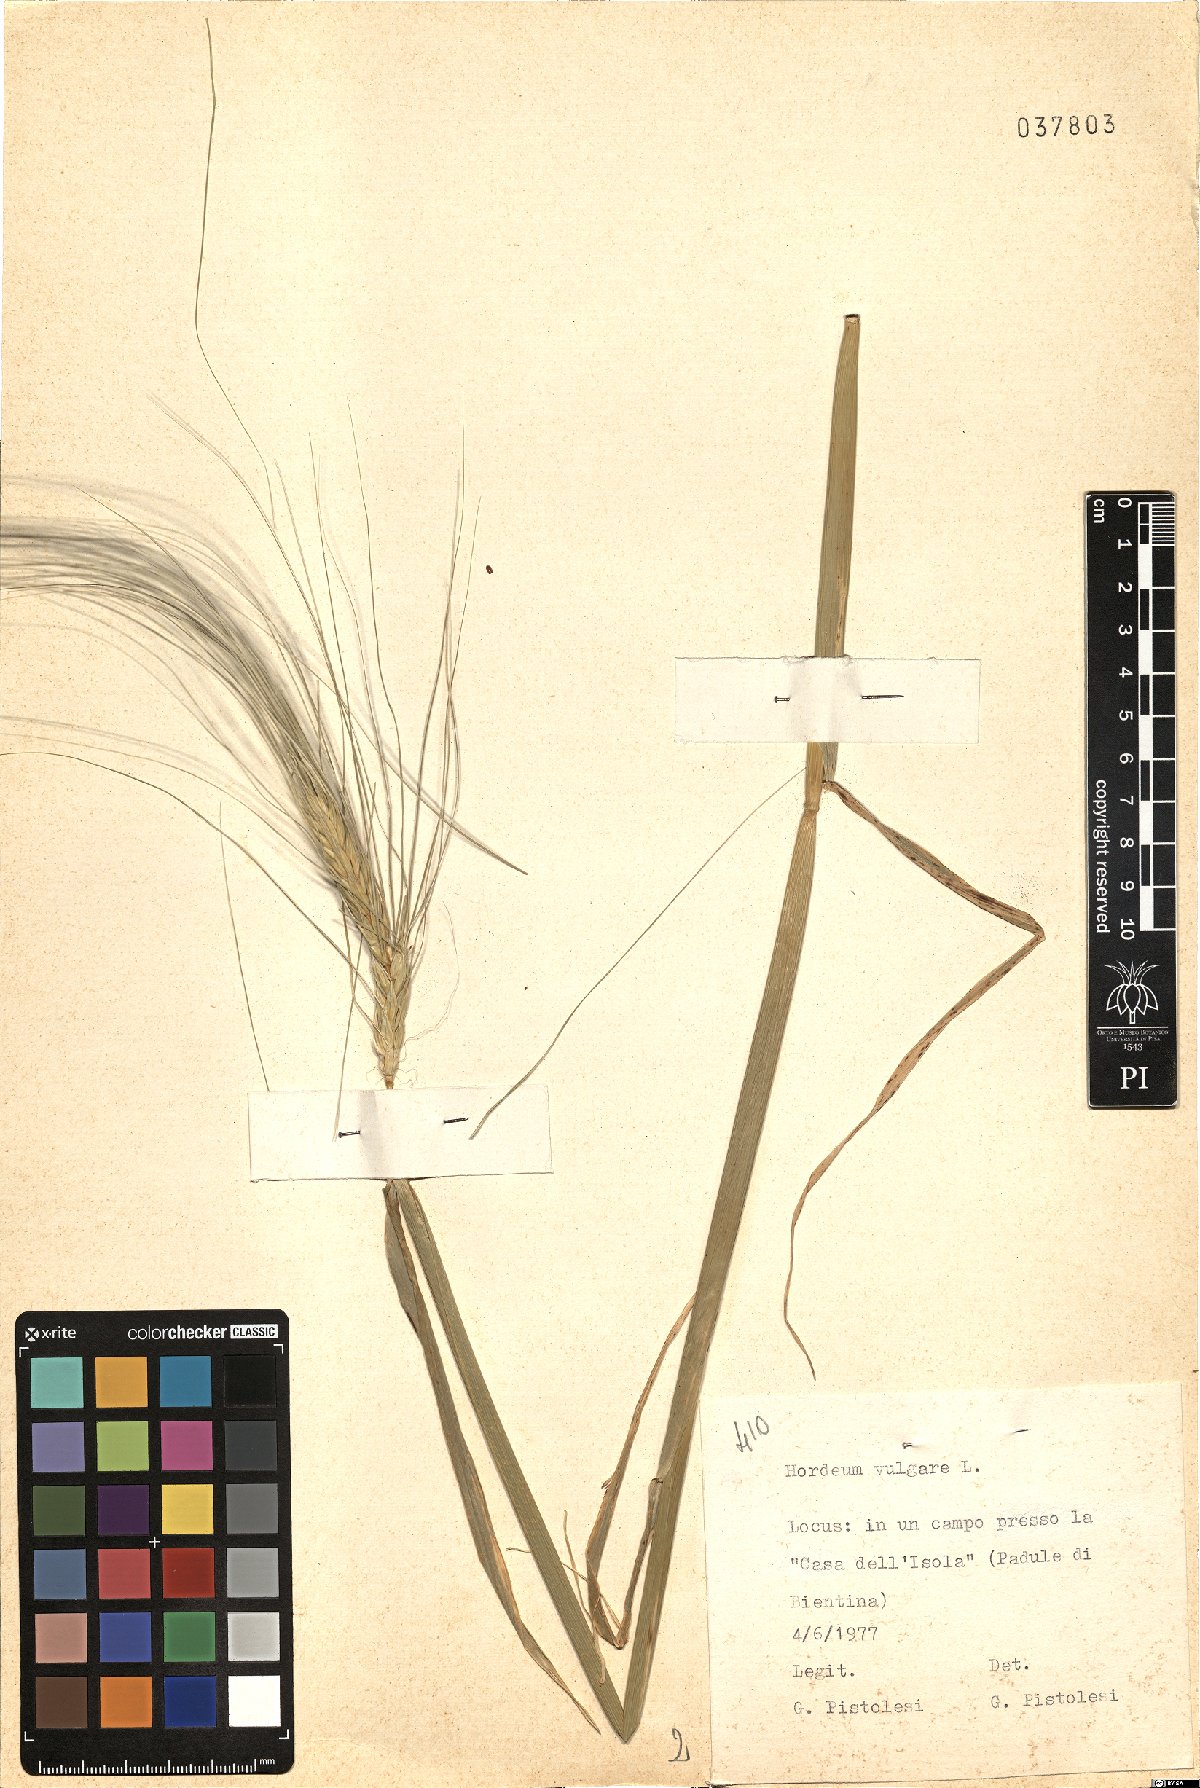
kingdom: Plantae
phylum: Tracheophyta
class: Liliopsida
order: Poales
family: Poaceae
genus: Hordeum
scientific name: Hordeum vulgare
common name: Common barley
